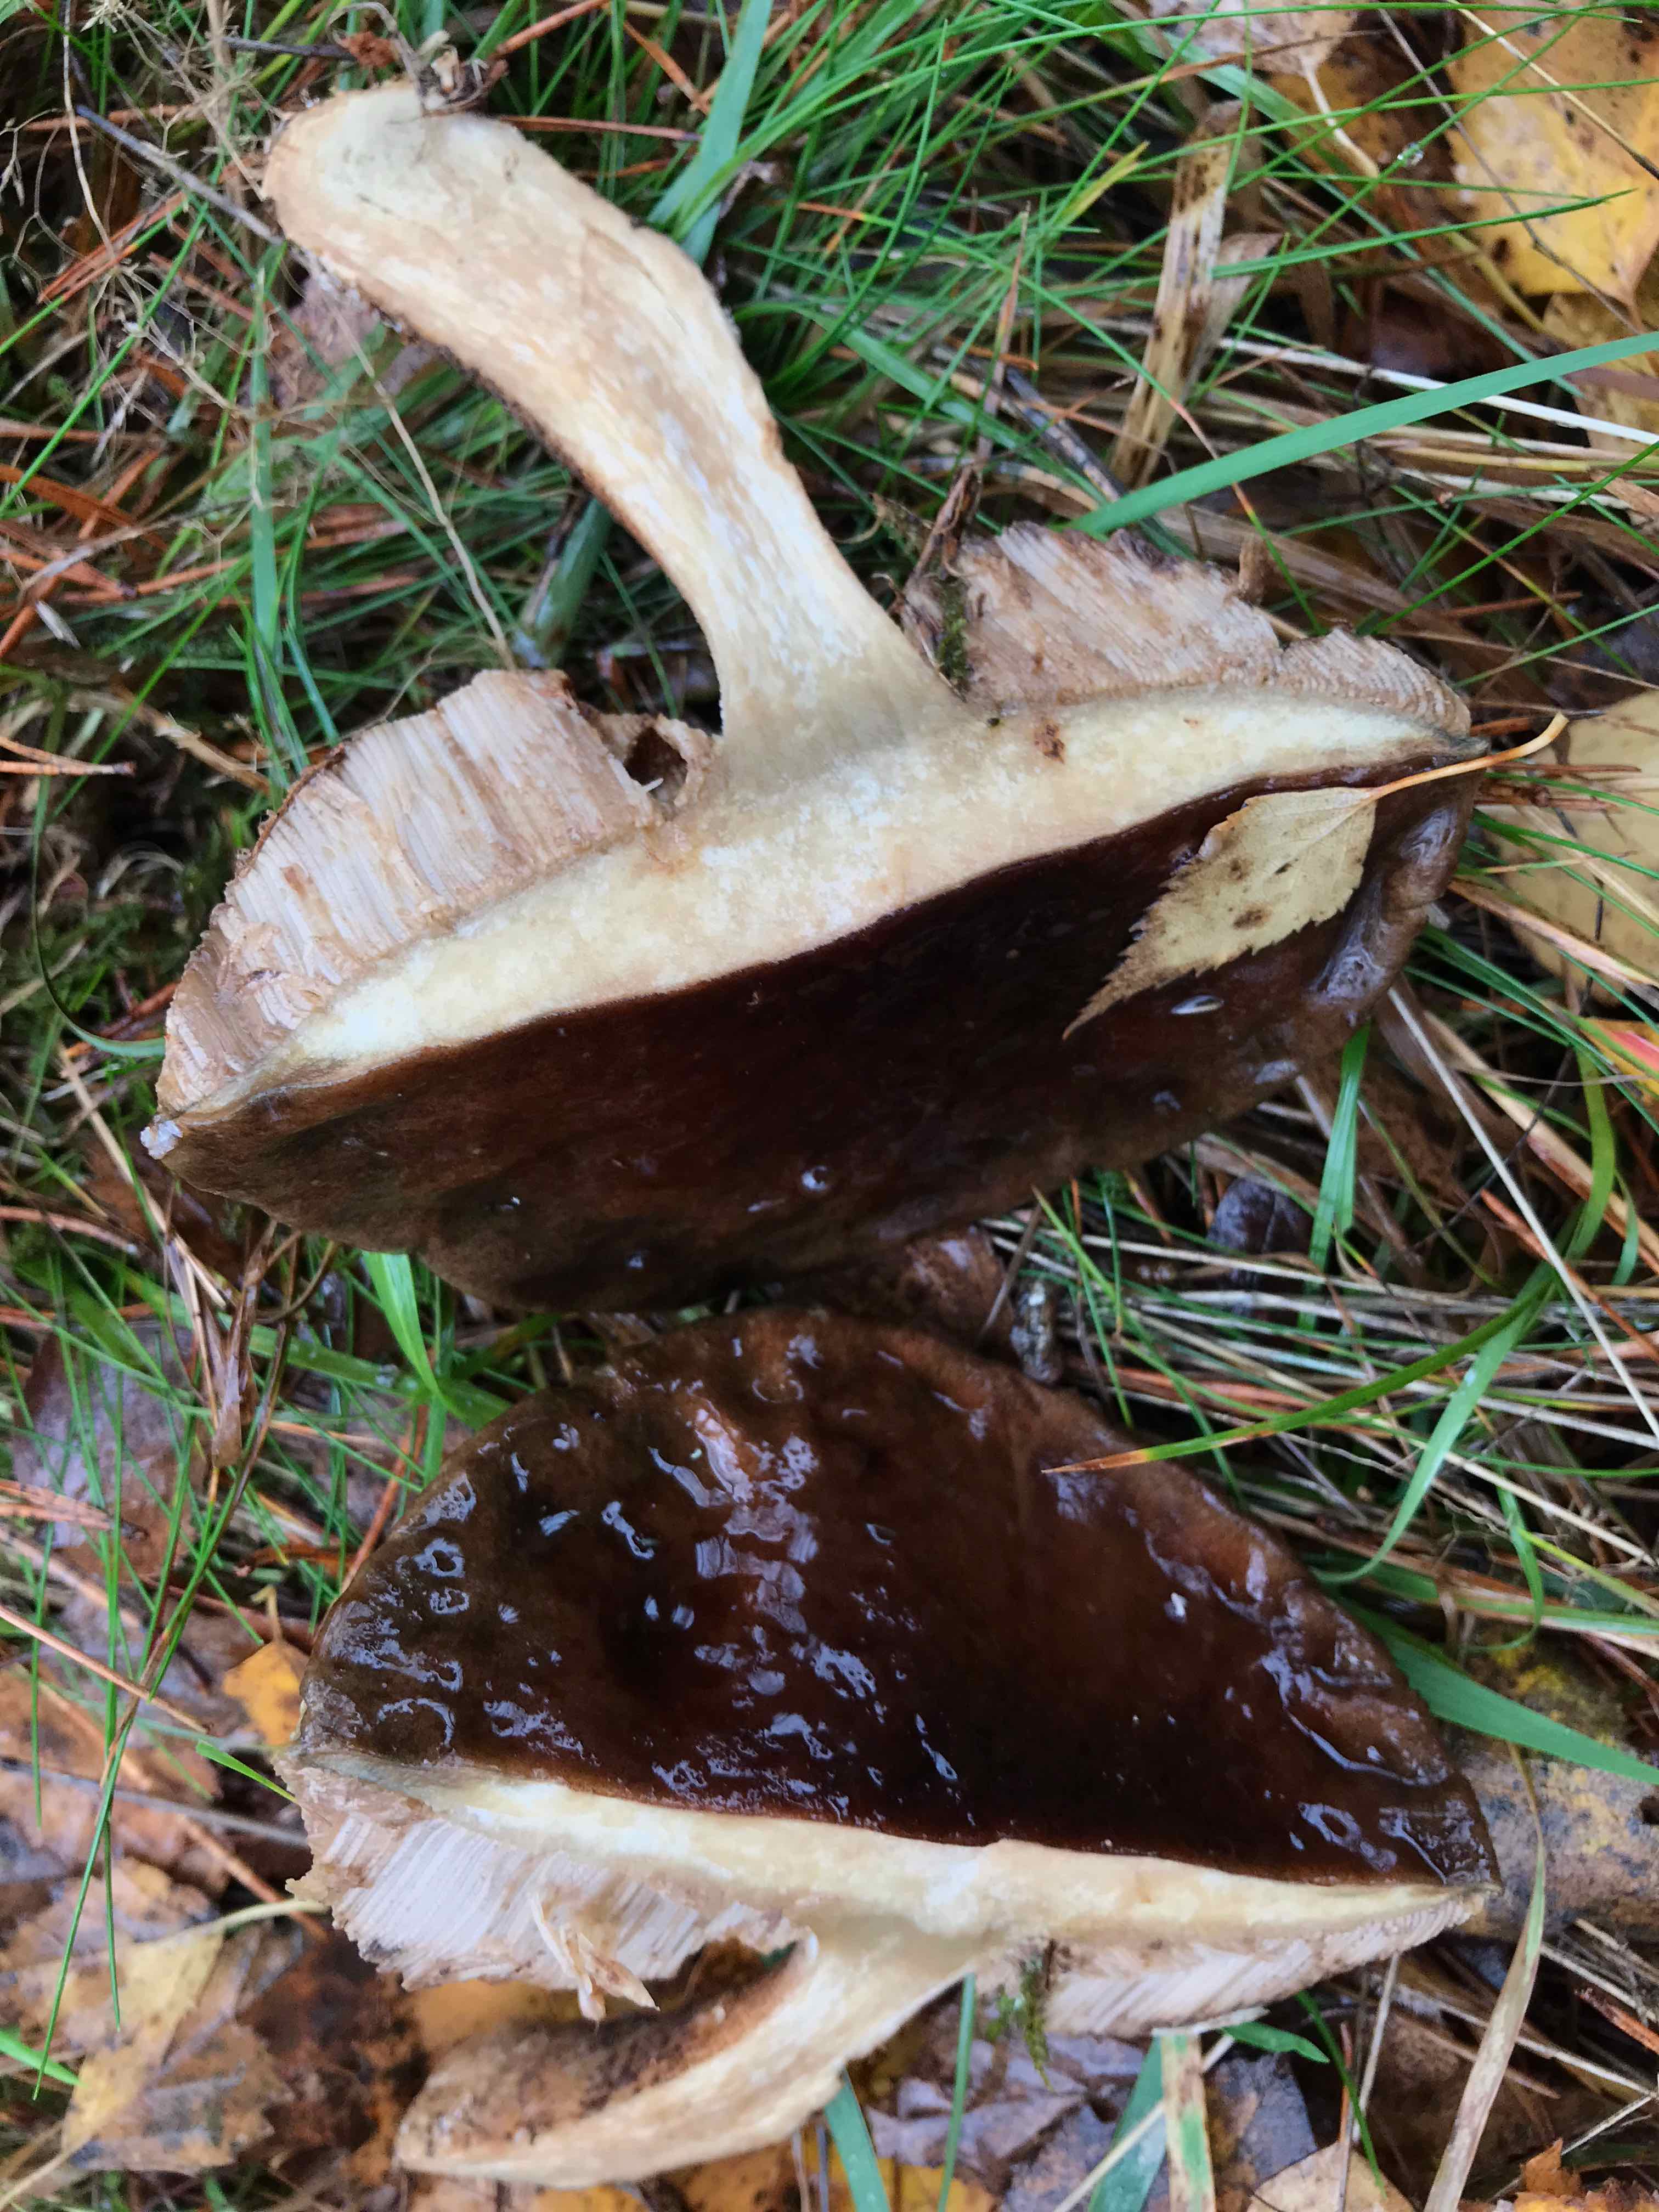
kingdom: Fungi
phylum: Basidiomycota
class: Agaricomycetes
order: Boletales
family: Boletaceae
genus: Leccinum
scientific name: Leccinum
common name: skælrørhat
